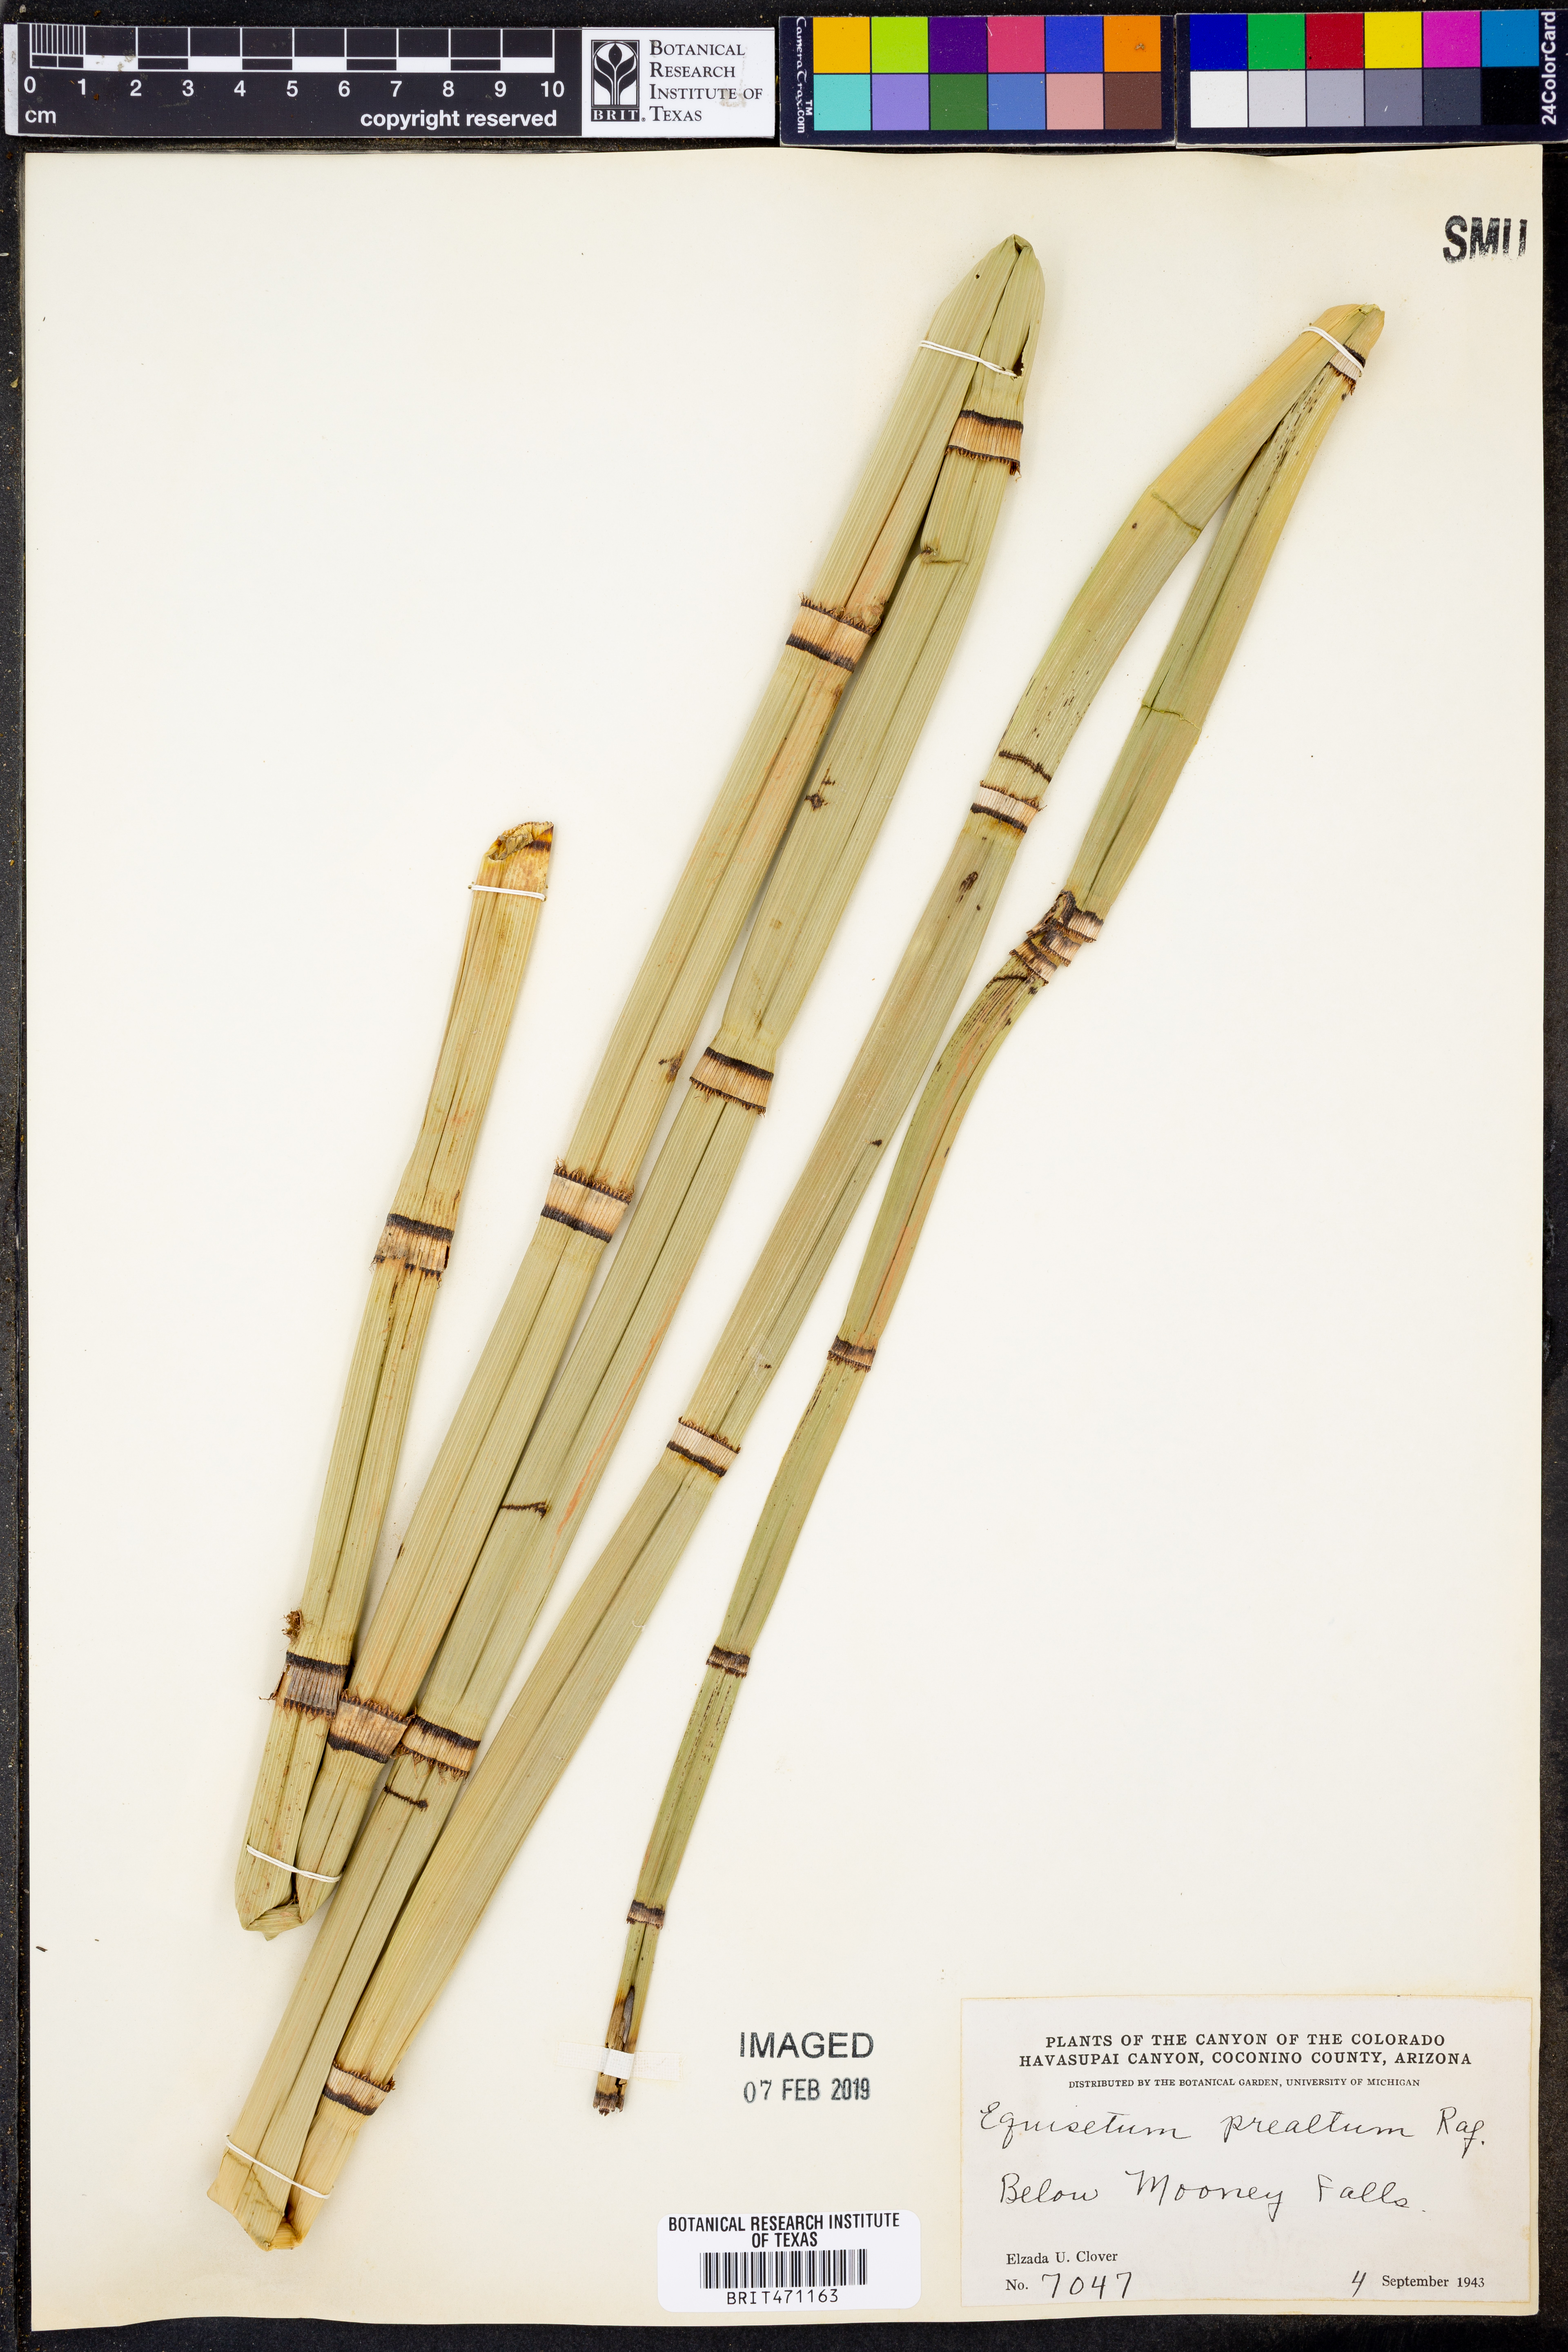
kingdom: Plantae
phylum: Tracheophyta
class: Polypodiopsida
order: Equisetales
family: Equisetaceae
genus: Equisetum
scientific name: Equisetum praealtum
